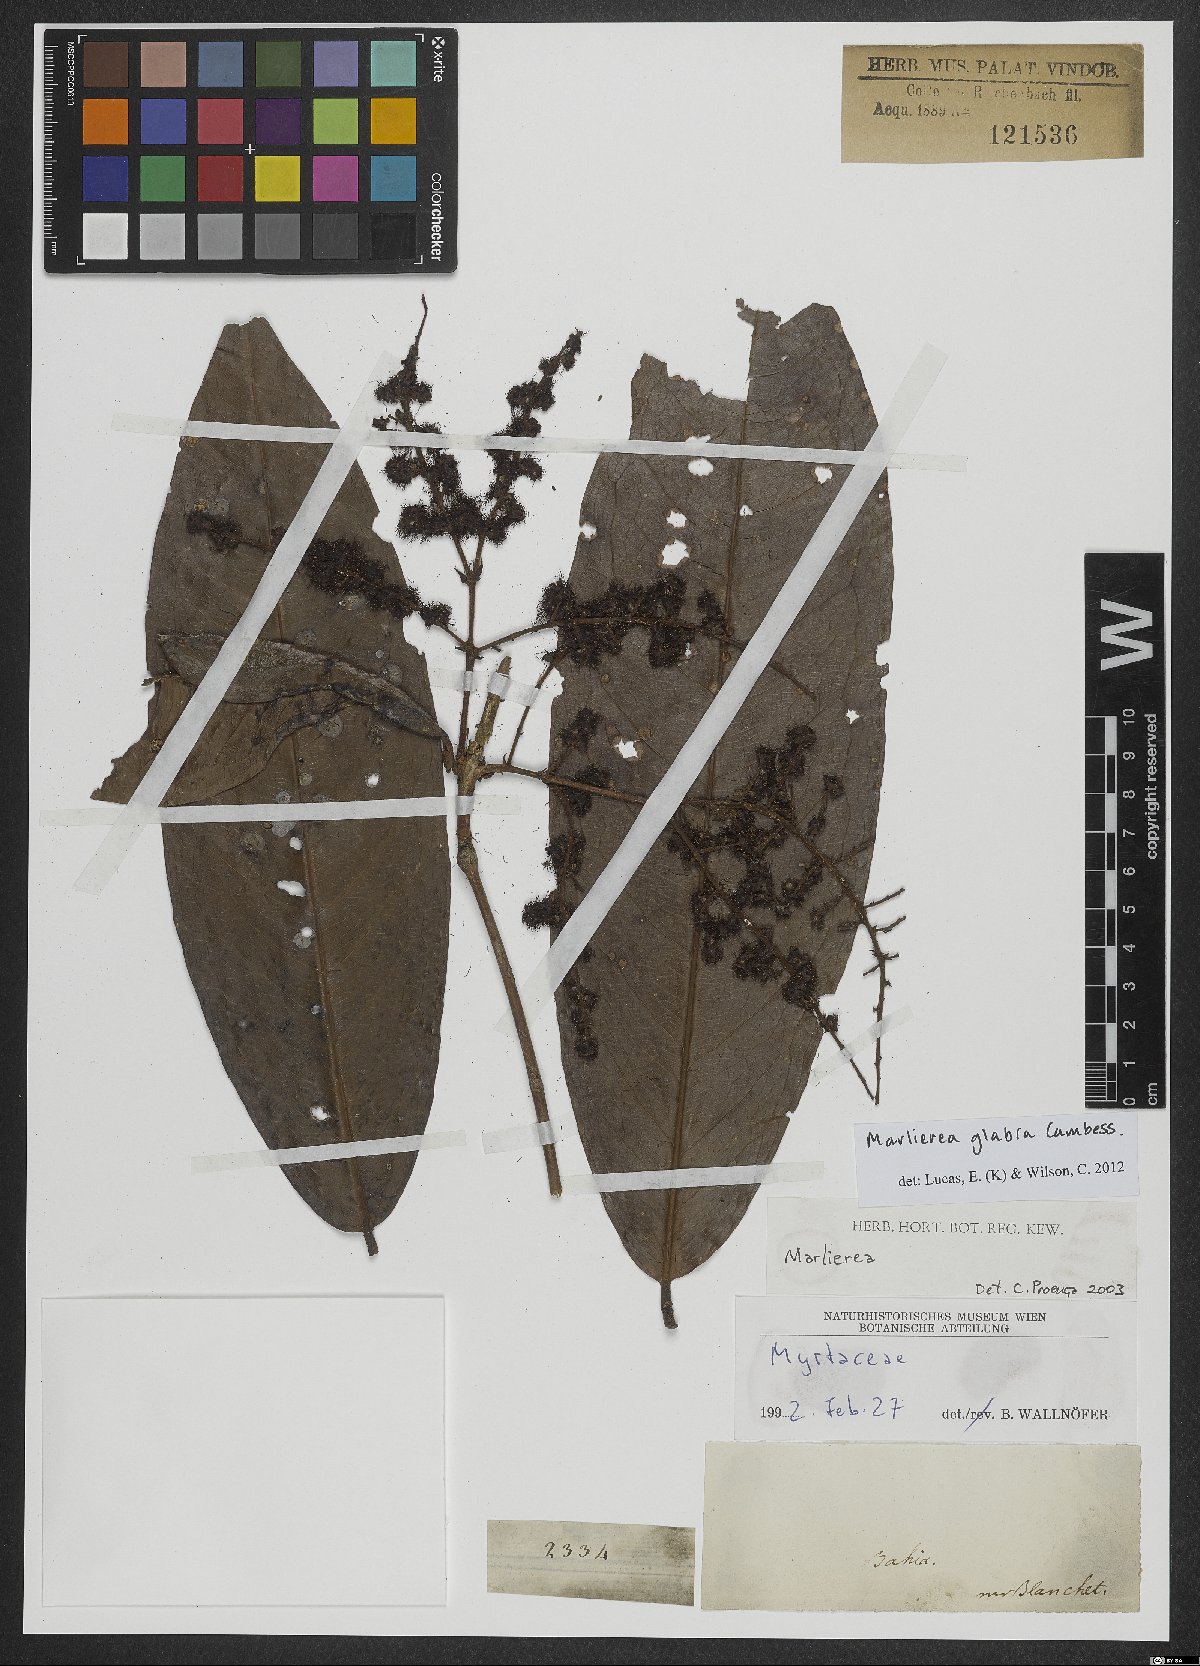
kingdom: Plantae
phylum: Tracheophyta
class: Magnoliopsida
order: Myrtales
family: Myrtaceae
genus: Myrcia
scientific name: Myrcia neoglabra
